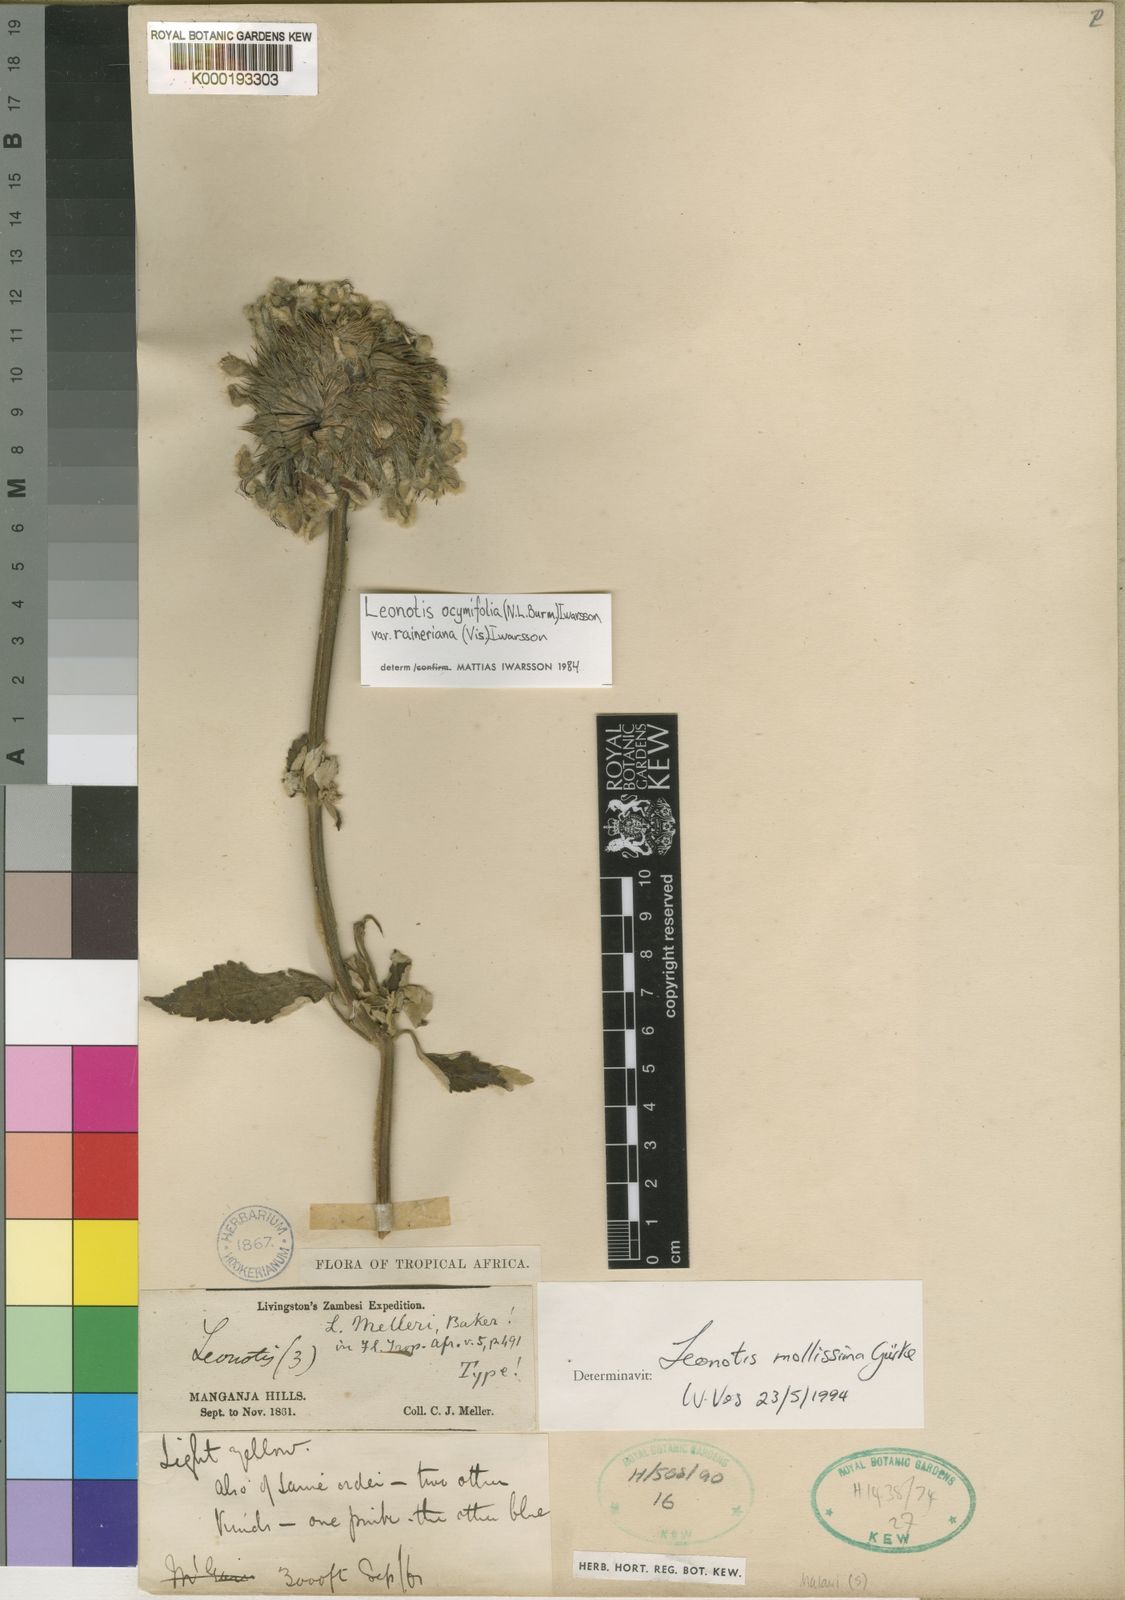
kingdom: Plantae
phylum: Tracheophyta
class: Magnoliopsida
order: Lamiales
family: Lamiaceae
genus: Leonotis
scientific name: Leonotis ocymifolia
